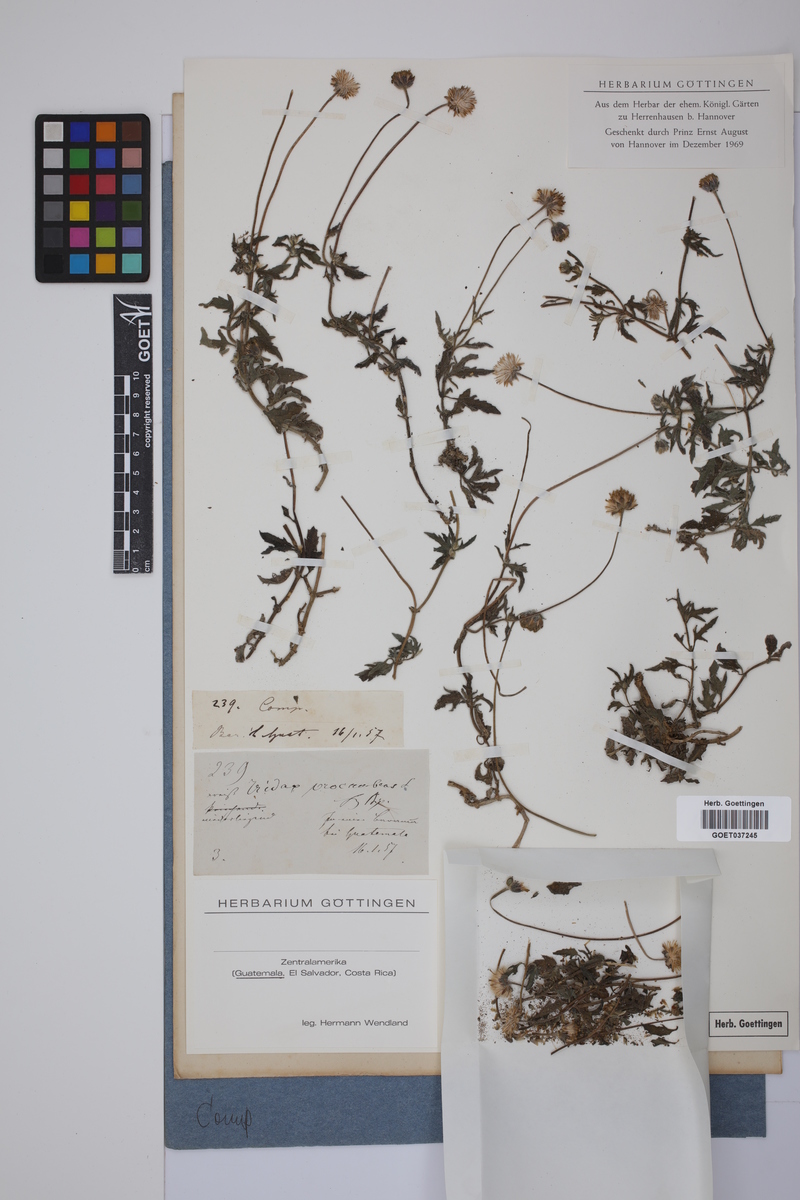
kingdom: Plantae
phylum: Tracheophyta
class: Magnoliopsida
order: Asterales
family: Asteraceae
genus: Tridax
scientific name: Tridax procumbens
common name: Coatbuttons
